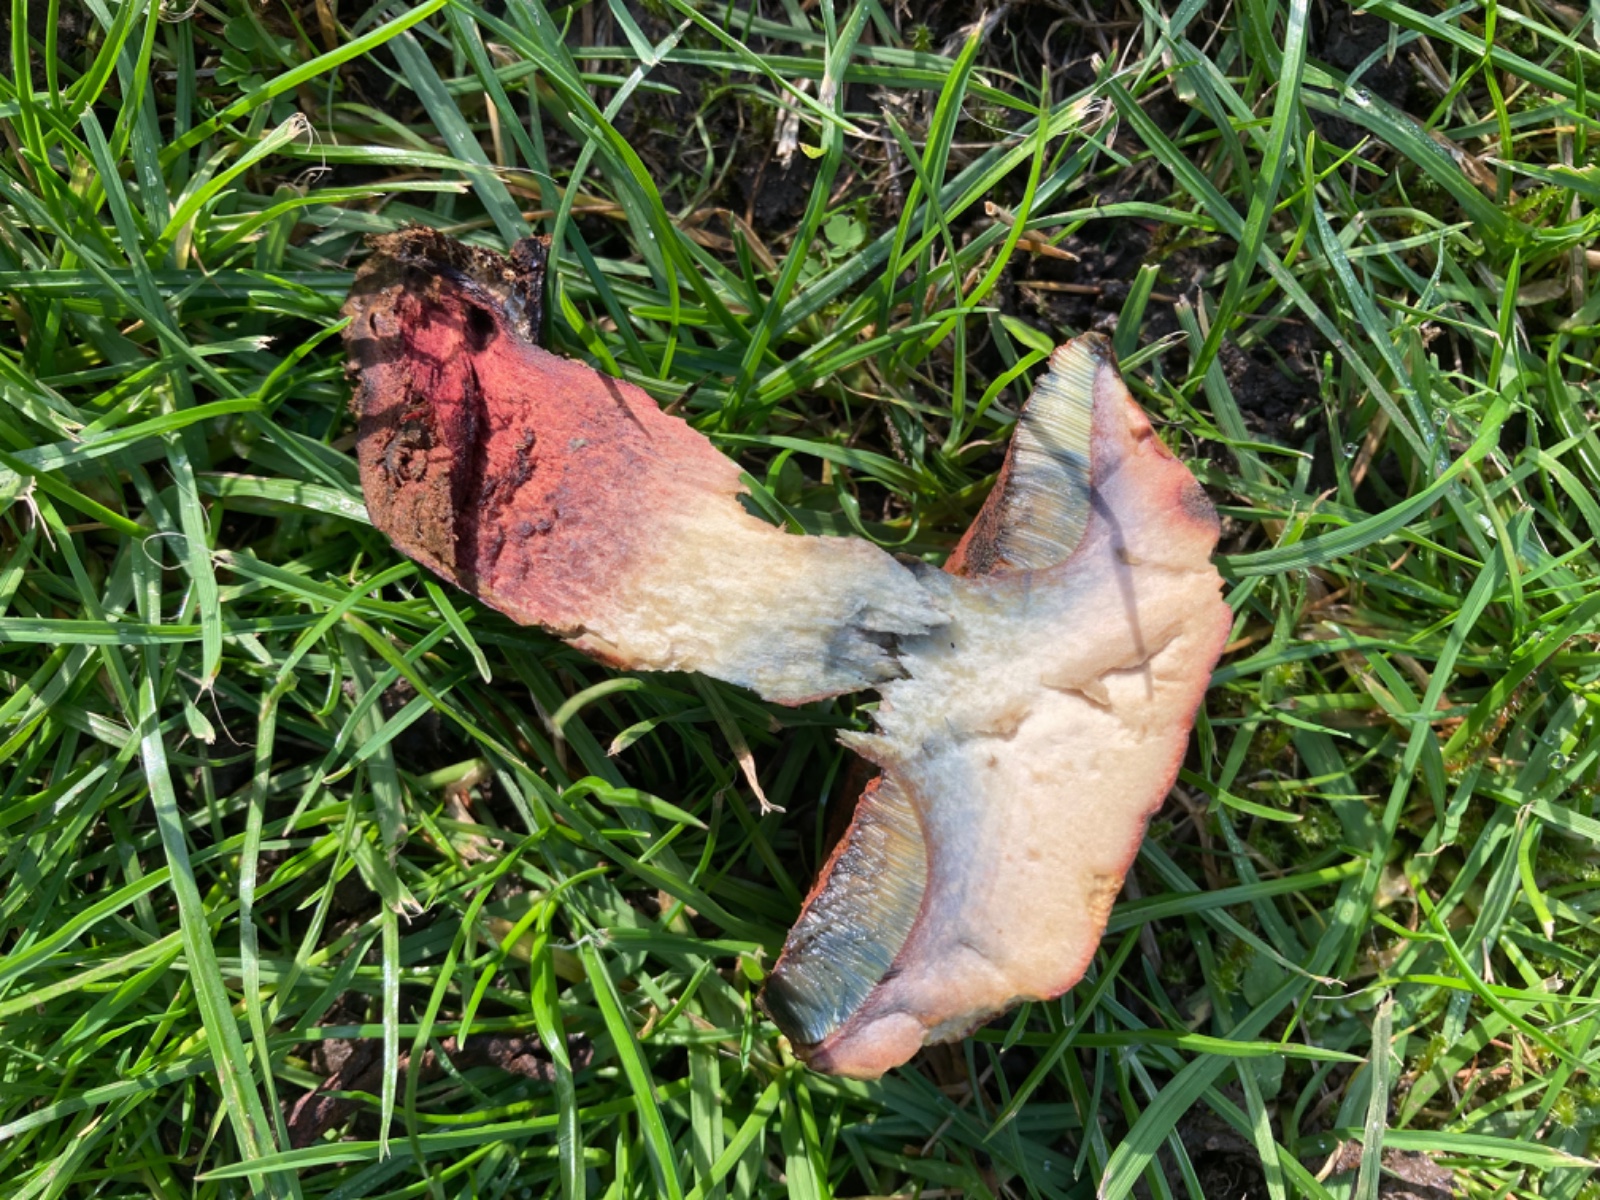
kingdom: Fungi
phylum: Basidiomycota
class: Agaricomycetes
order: Boletales
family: Boletaceae
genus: Suillellus
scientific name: Suillellus mendax
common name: joker-indigorørhat
